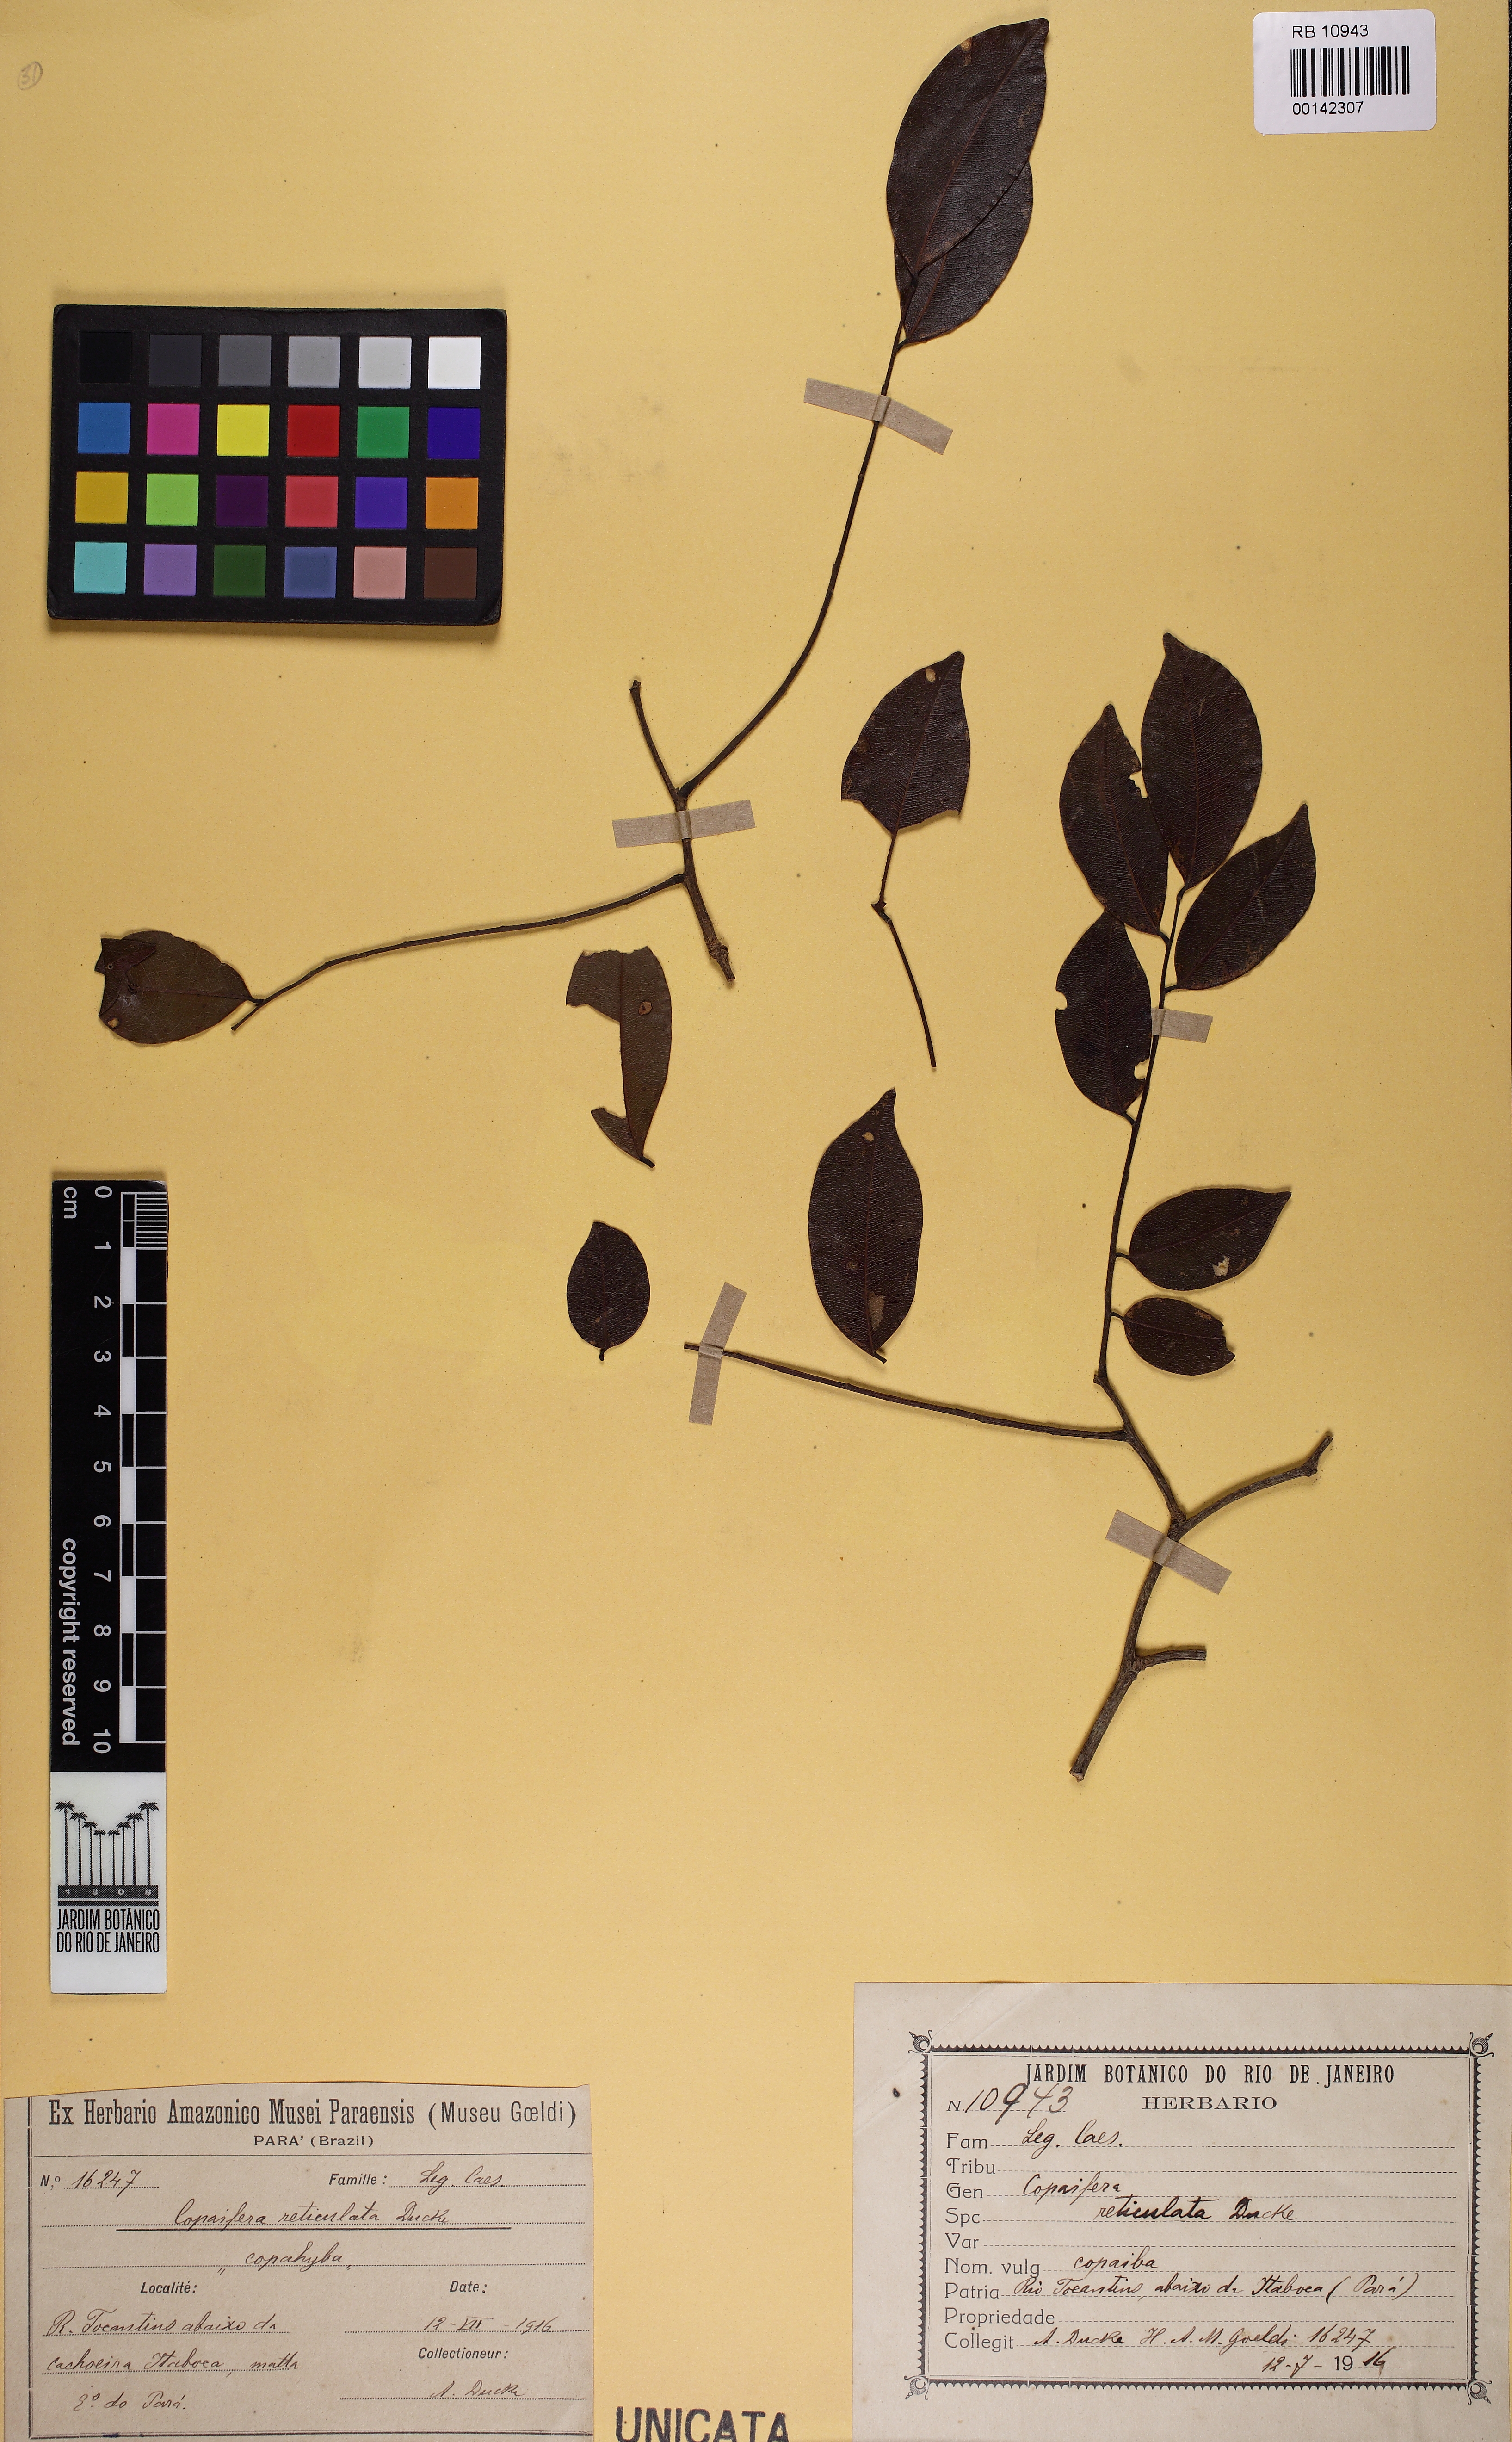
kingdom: Plantae
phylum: Tracheophyta
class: Magnoliopsida
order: Fabales
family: Fabaceae
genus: Copaifera
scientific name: Copaifera copaibo
